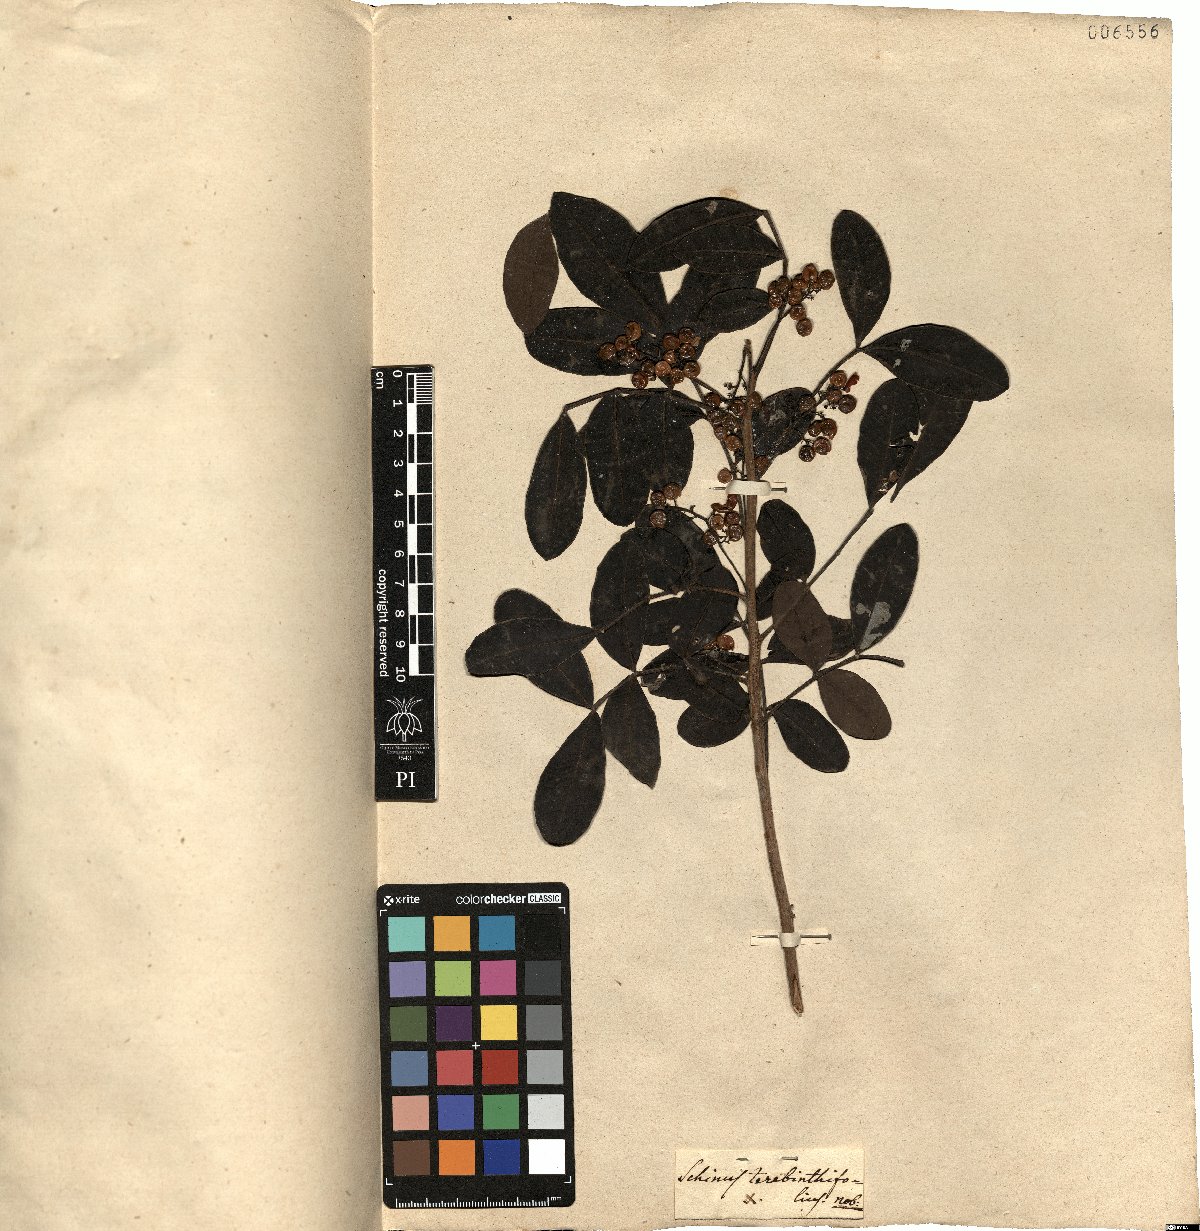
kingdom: Plantae
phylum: Tracheophyta
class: Magnoliopsida
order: Sapindales
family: Anacardiaceae
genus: Schinus
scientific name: Schinus terebinthifolia
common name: Brazilian peppertree
